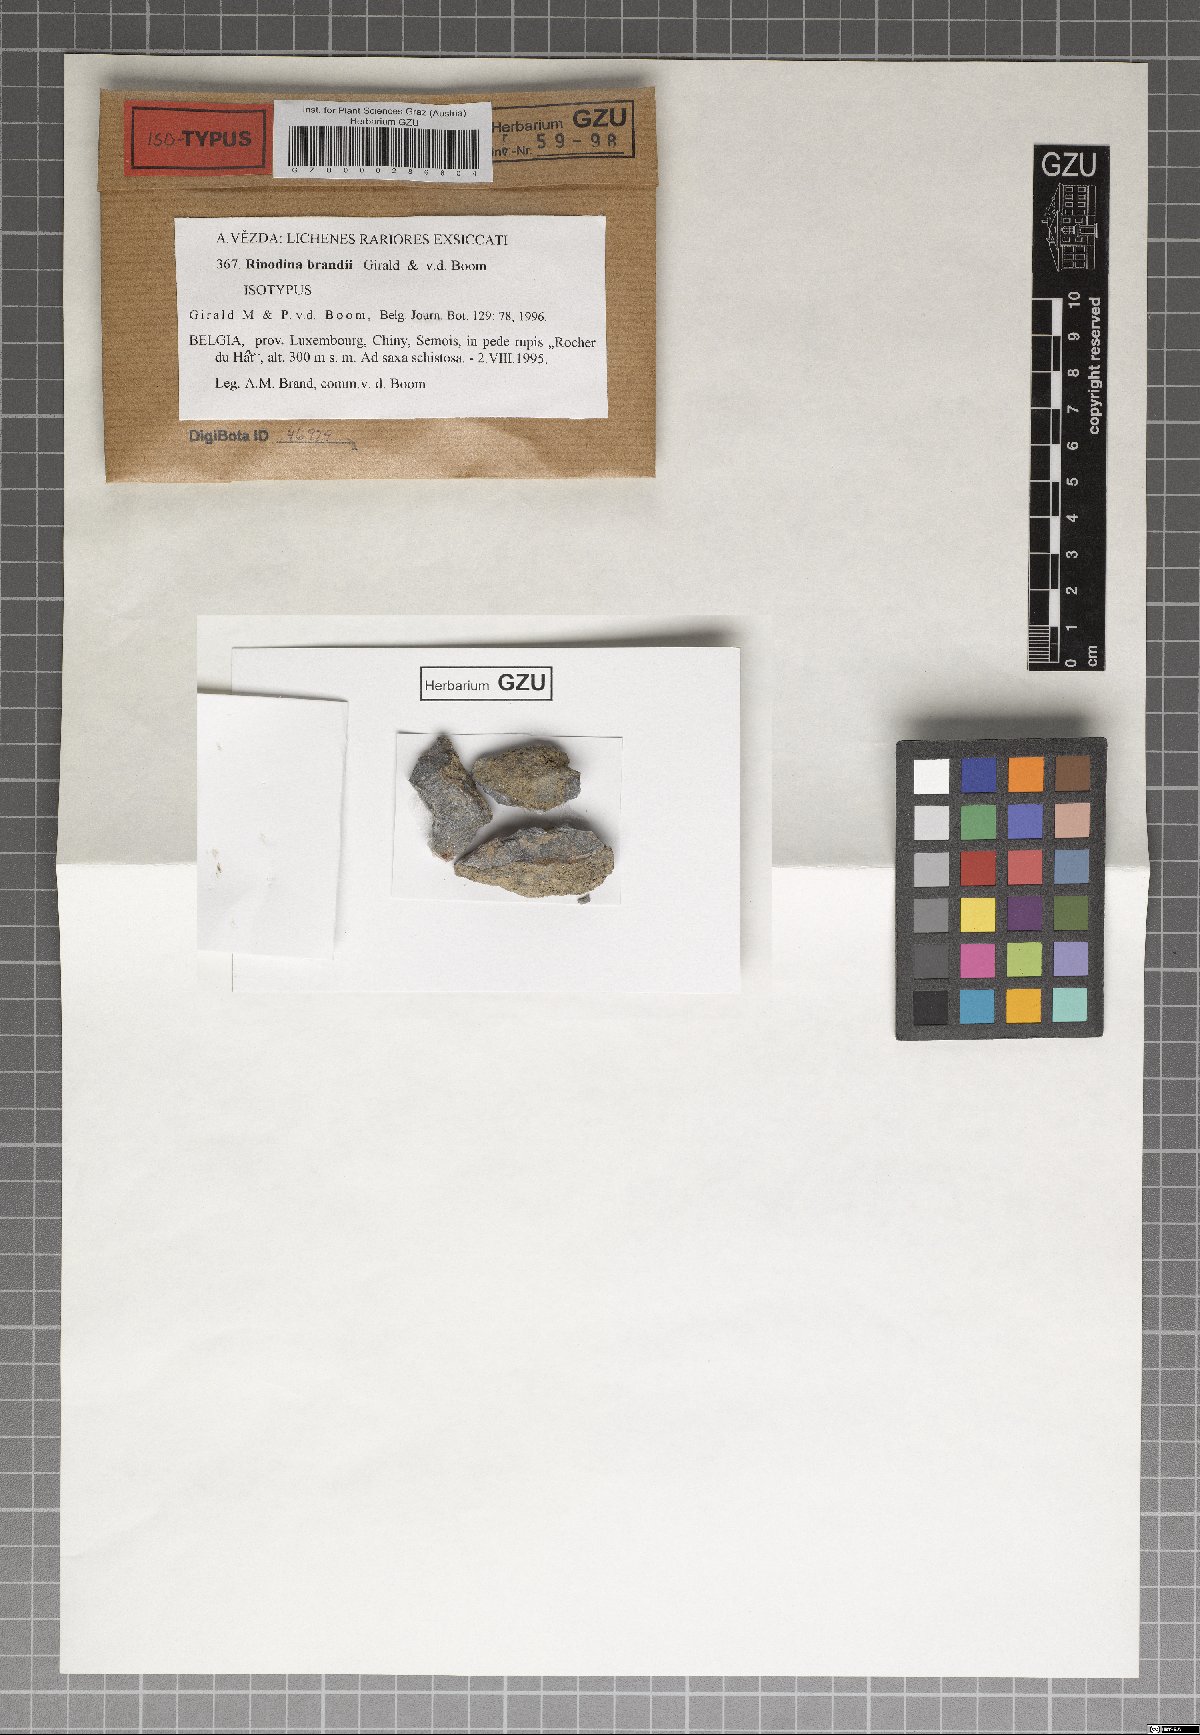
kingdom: Fungi
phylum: Ascomycota
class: Lecanoromycetes
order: Caliciales
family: Physciaceae
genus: Rinodina
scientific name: Rinodina brattii
